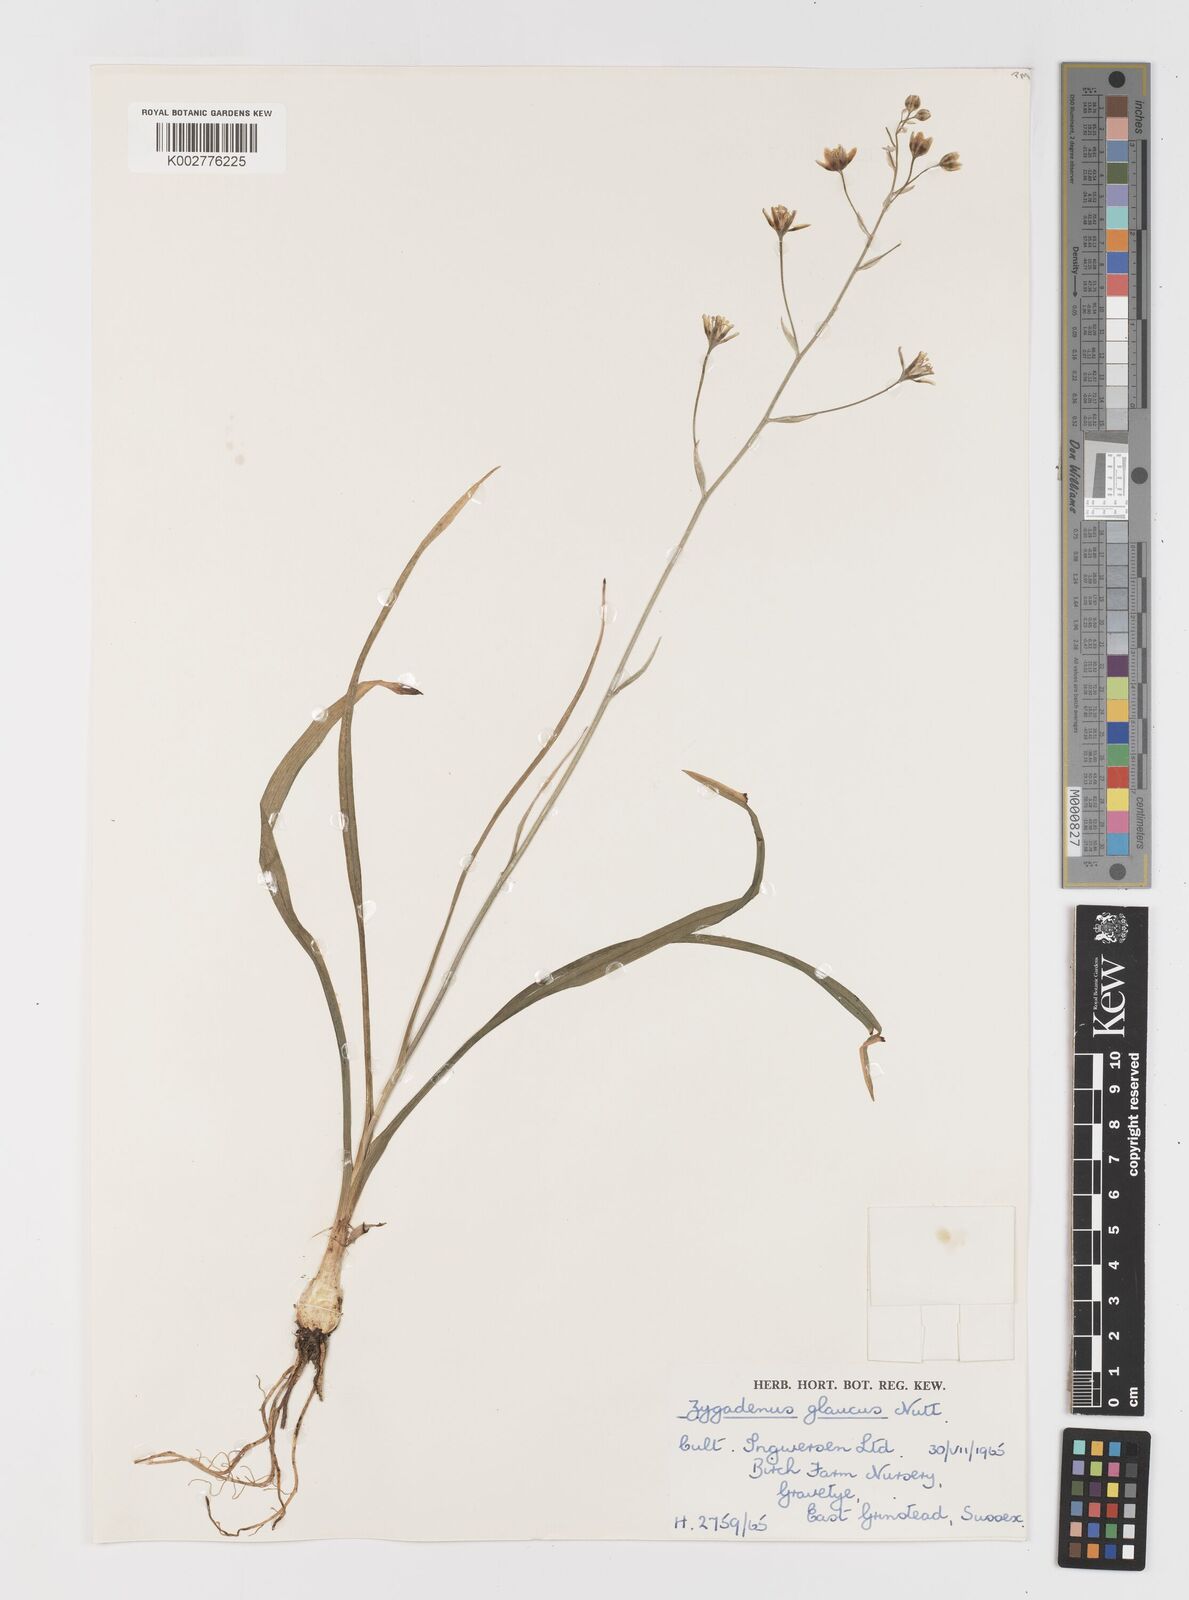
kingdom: Plantae
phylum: Tracheophyta
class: Liliopsida
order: Liliales
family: Melanthiaceae
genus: Anticlea
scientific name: Anticlea elegans
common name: Mountain death camas
